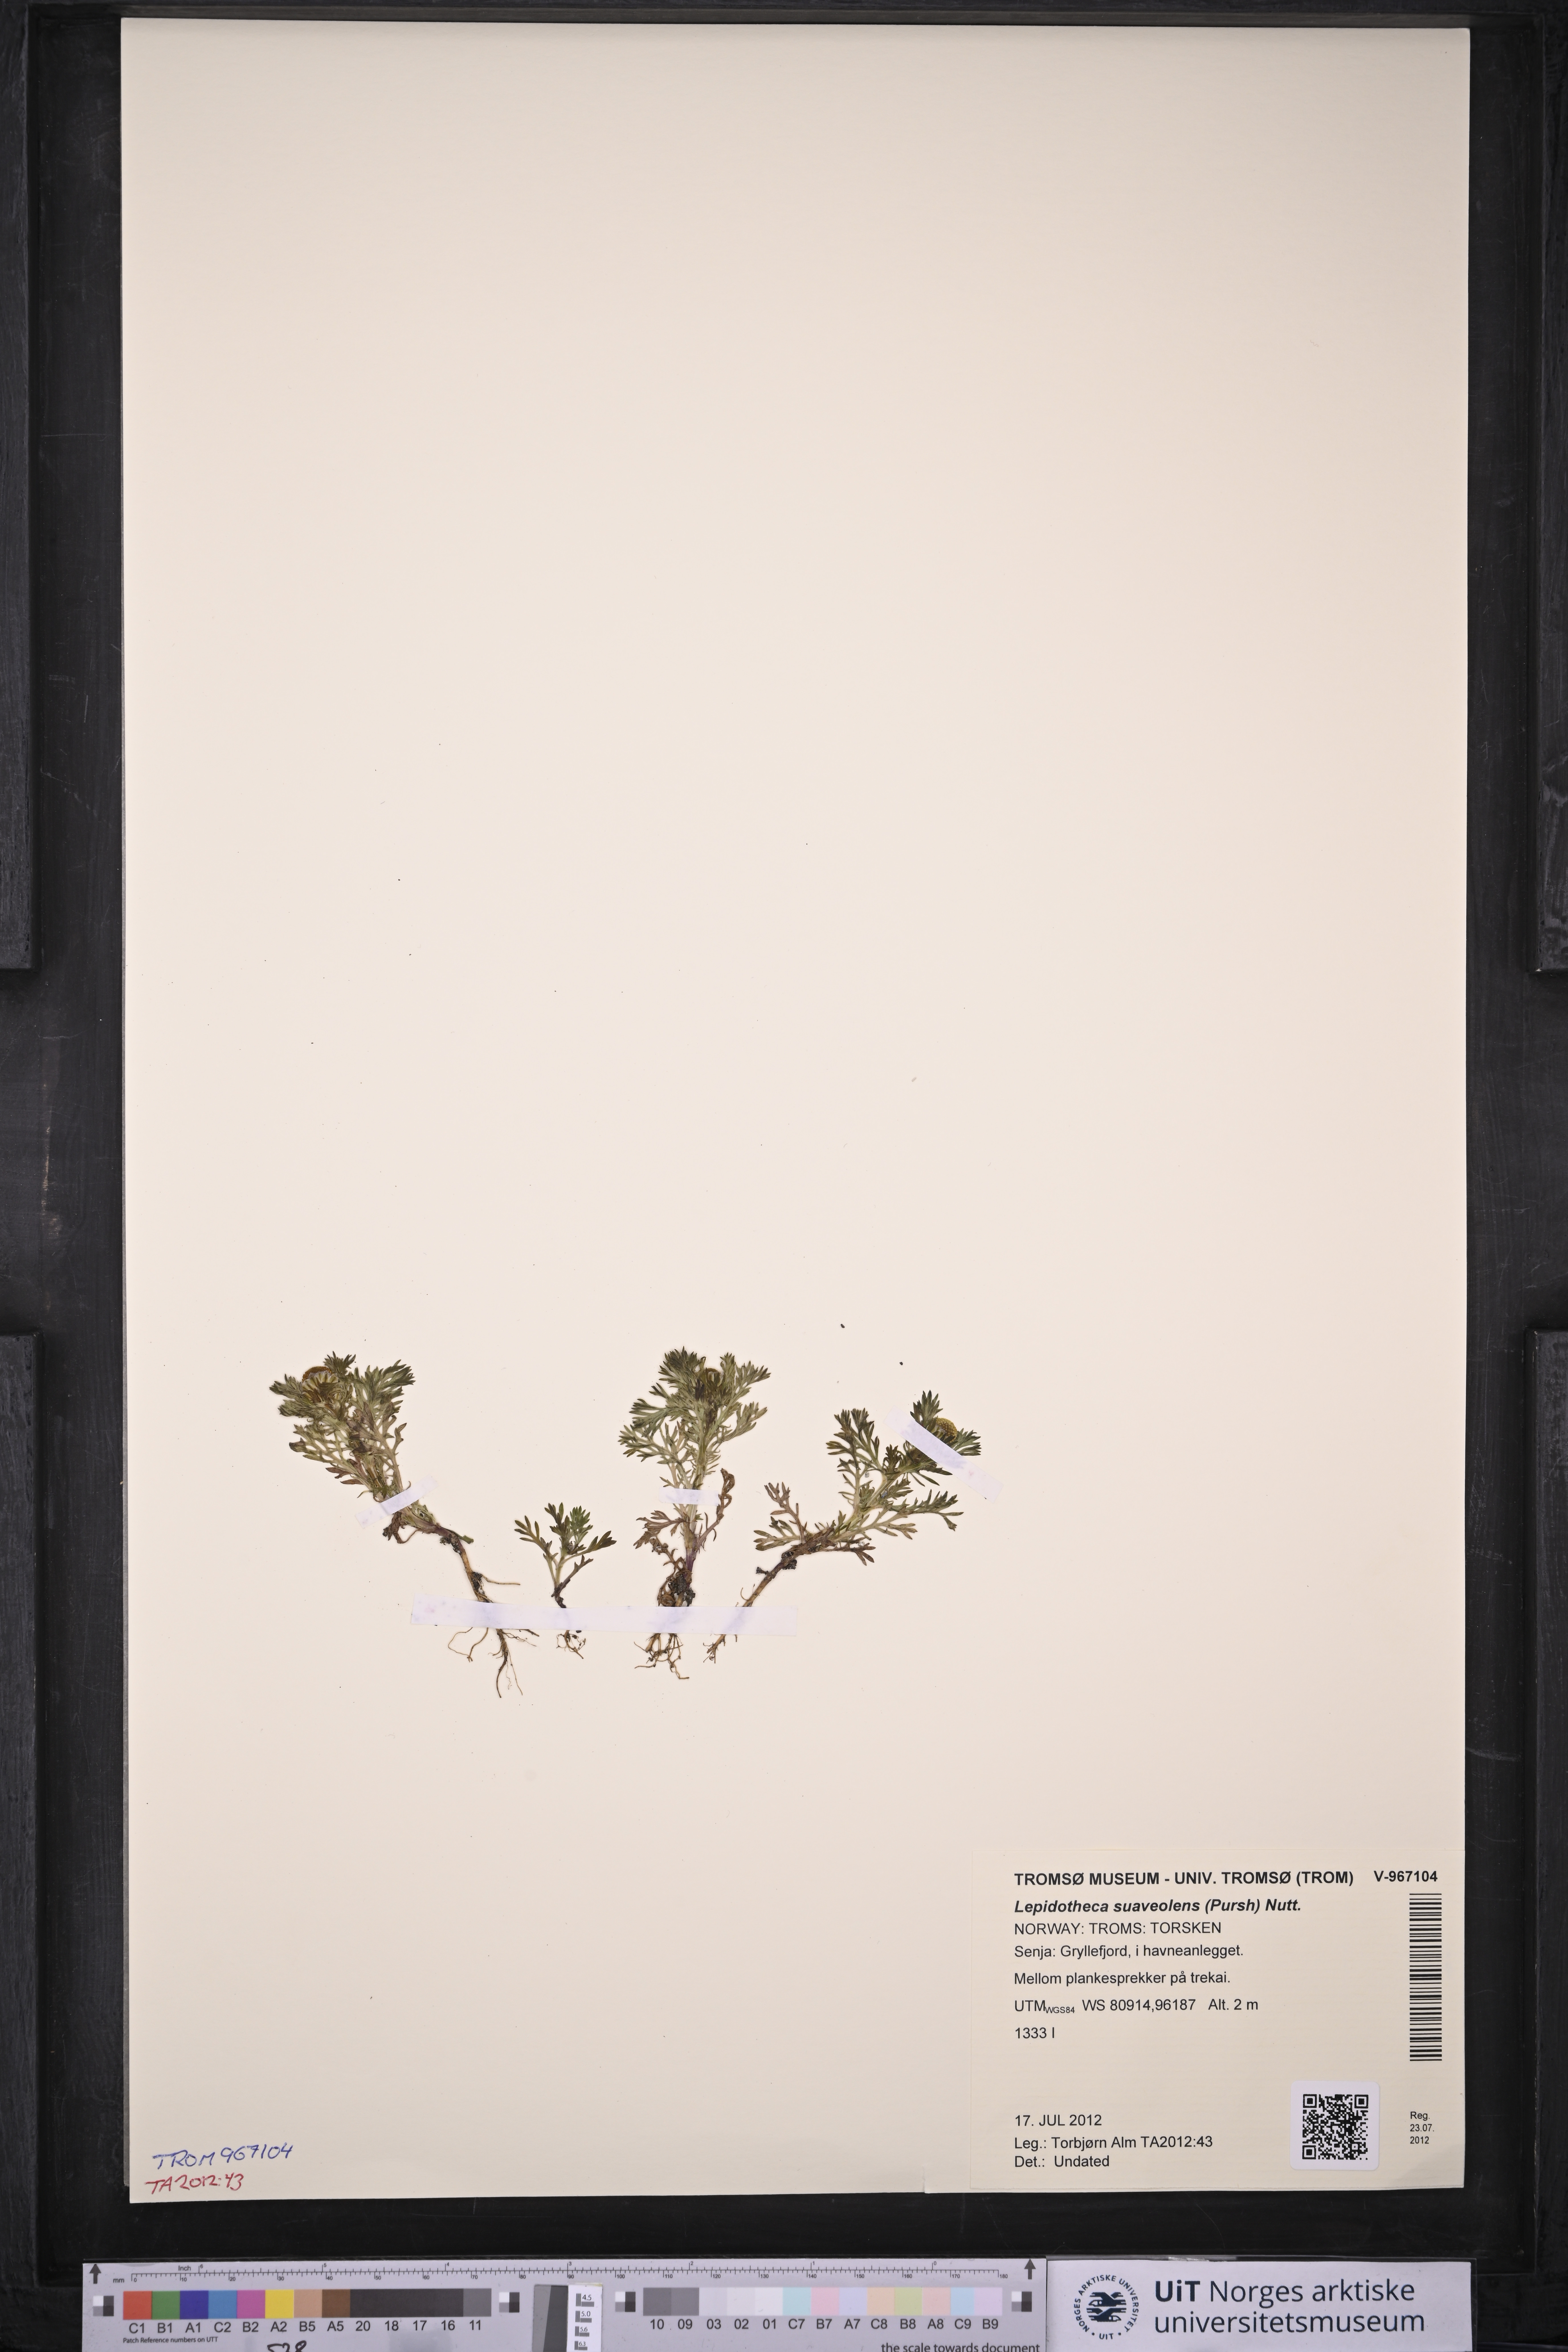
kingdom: Plantae
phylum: Tracheophyta
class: Magnoliopsida
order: Asterales
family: Asteraceae
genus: Matricaria
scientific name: Matricaria discoidea
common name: Disc mayweed
